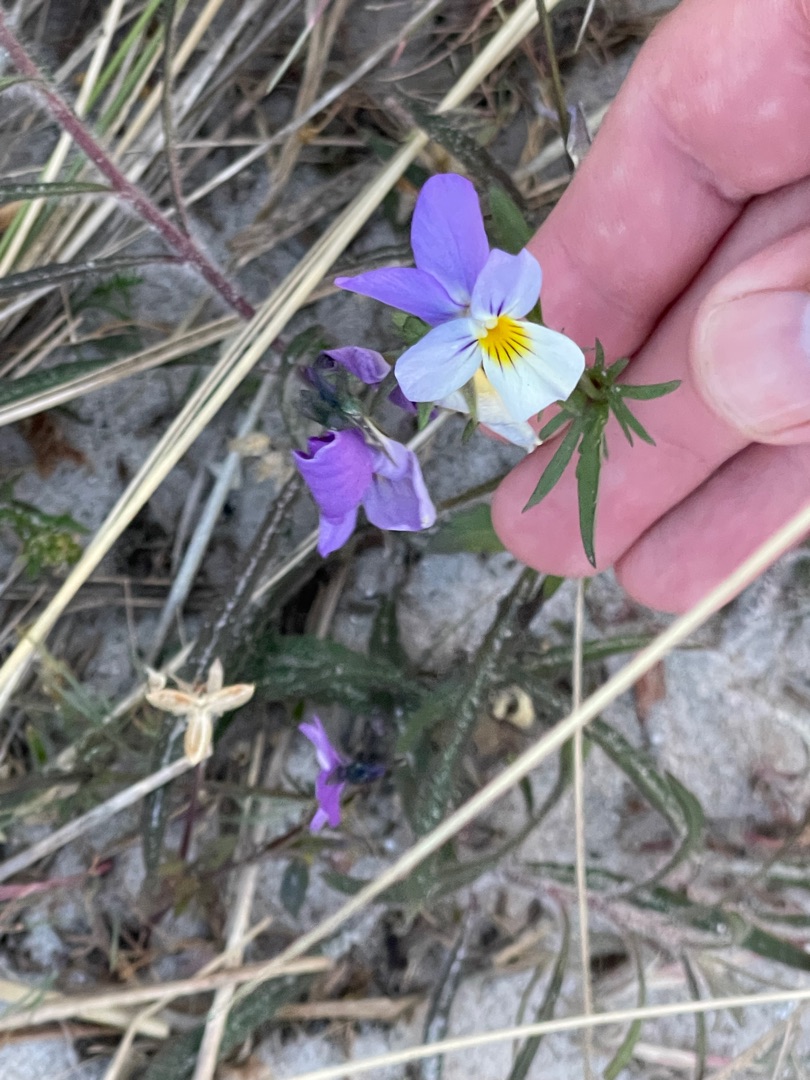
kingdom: Plantae
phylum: Tracheophyta
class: Magnoliopsida
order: Malpighiales
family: Violaceae
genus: Viola
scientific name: Viola tricolor
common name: Stedmoderblomst
